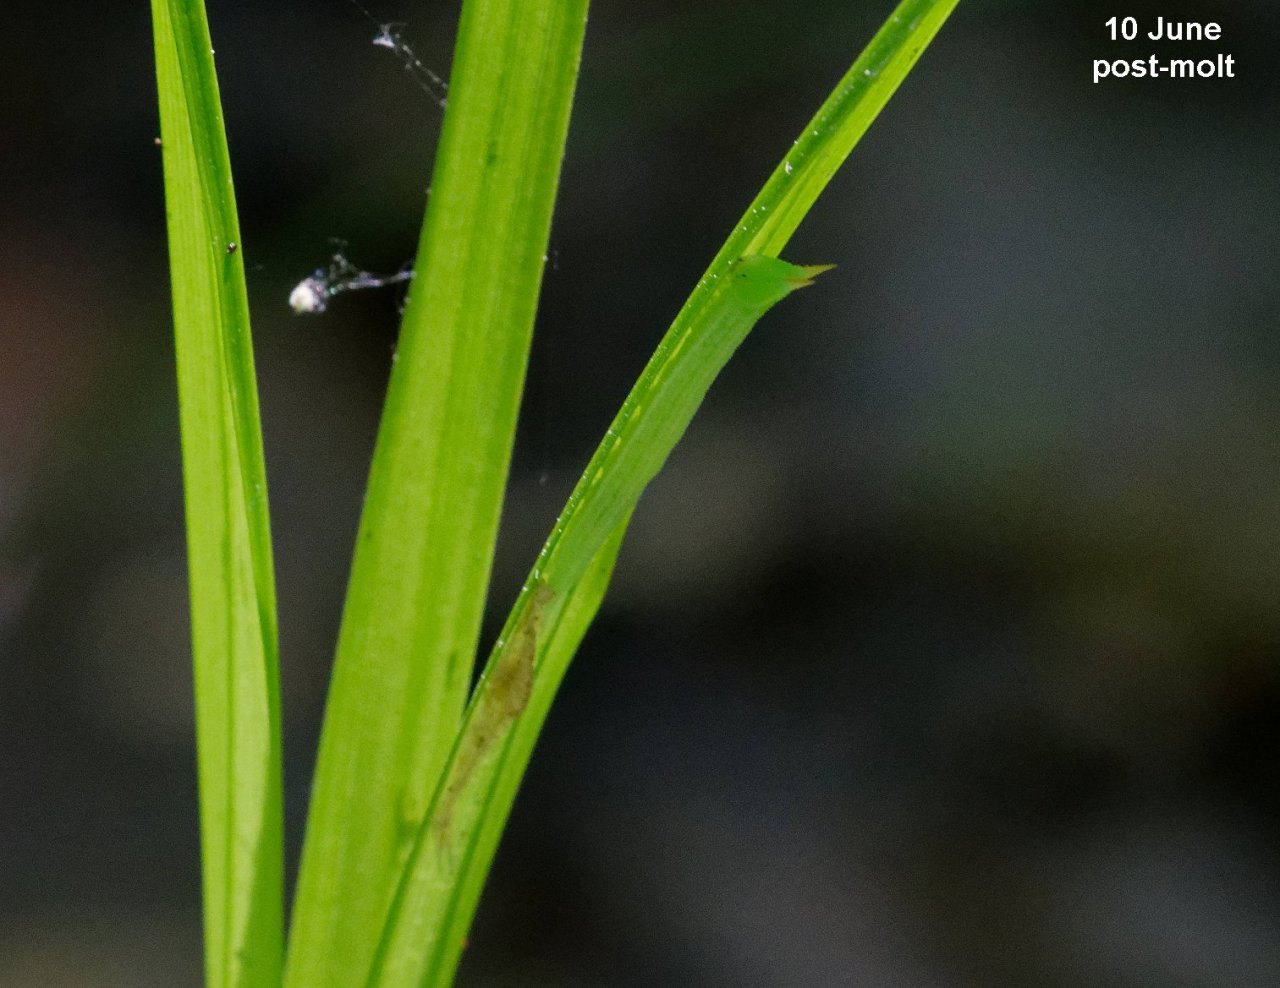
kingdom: Animalia
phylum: Arthropoda
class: Insecta
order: Lepidoptera
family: Nymphalidae
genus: Lethe
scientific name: Lethe eurydice
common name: Appalachian Eyed Brown
